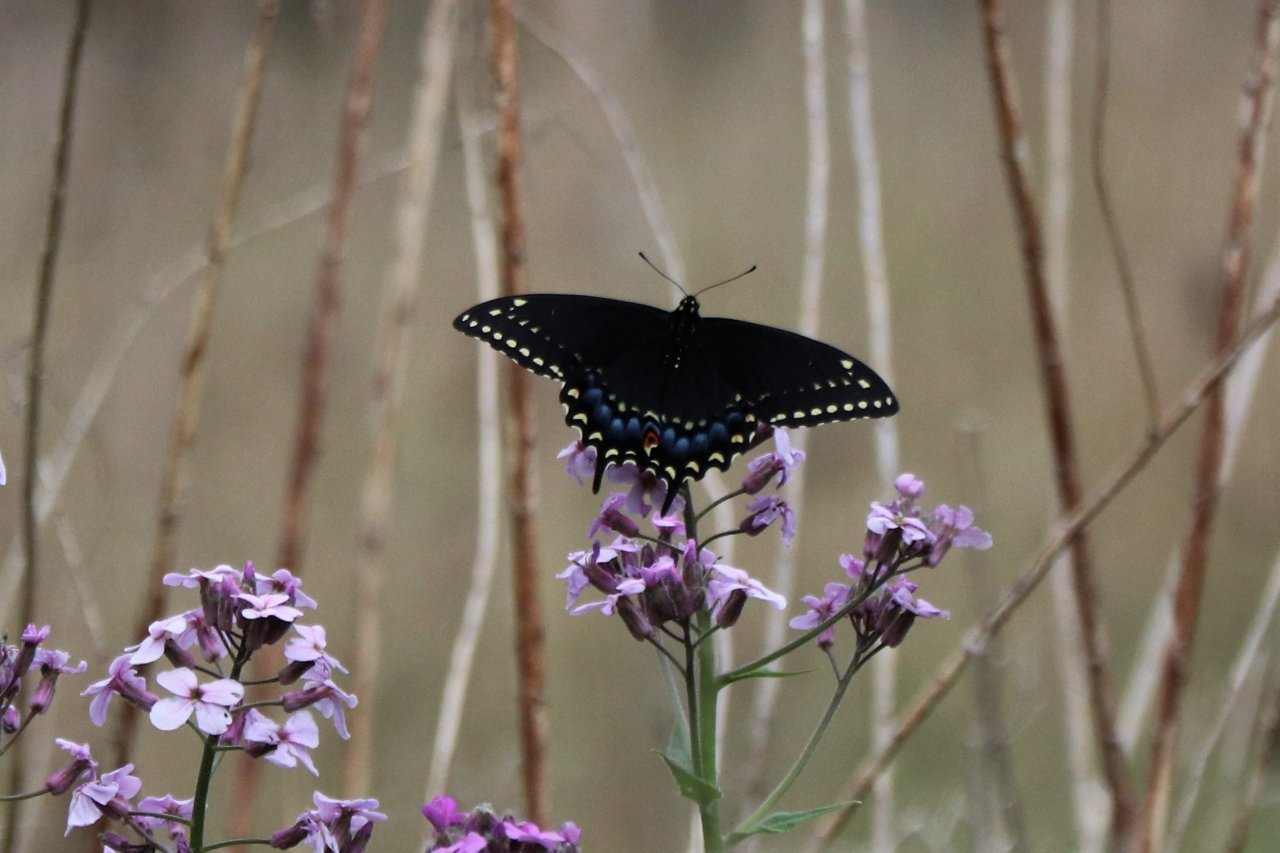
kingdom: Animalia
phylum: Arthropoda
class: Insecta
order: Lepidoptera
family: Papilionidae
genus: Papilio
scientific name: Papilio polyxenes
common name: Black Swallowtail
